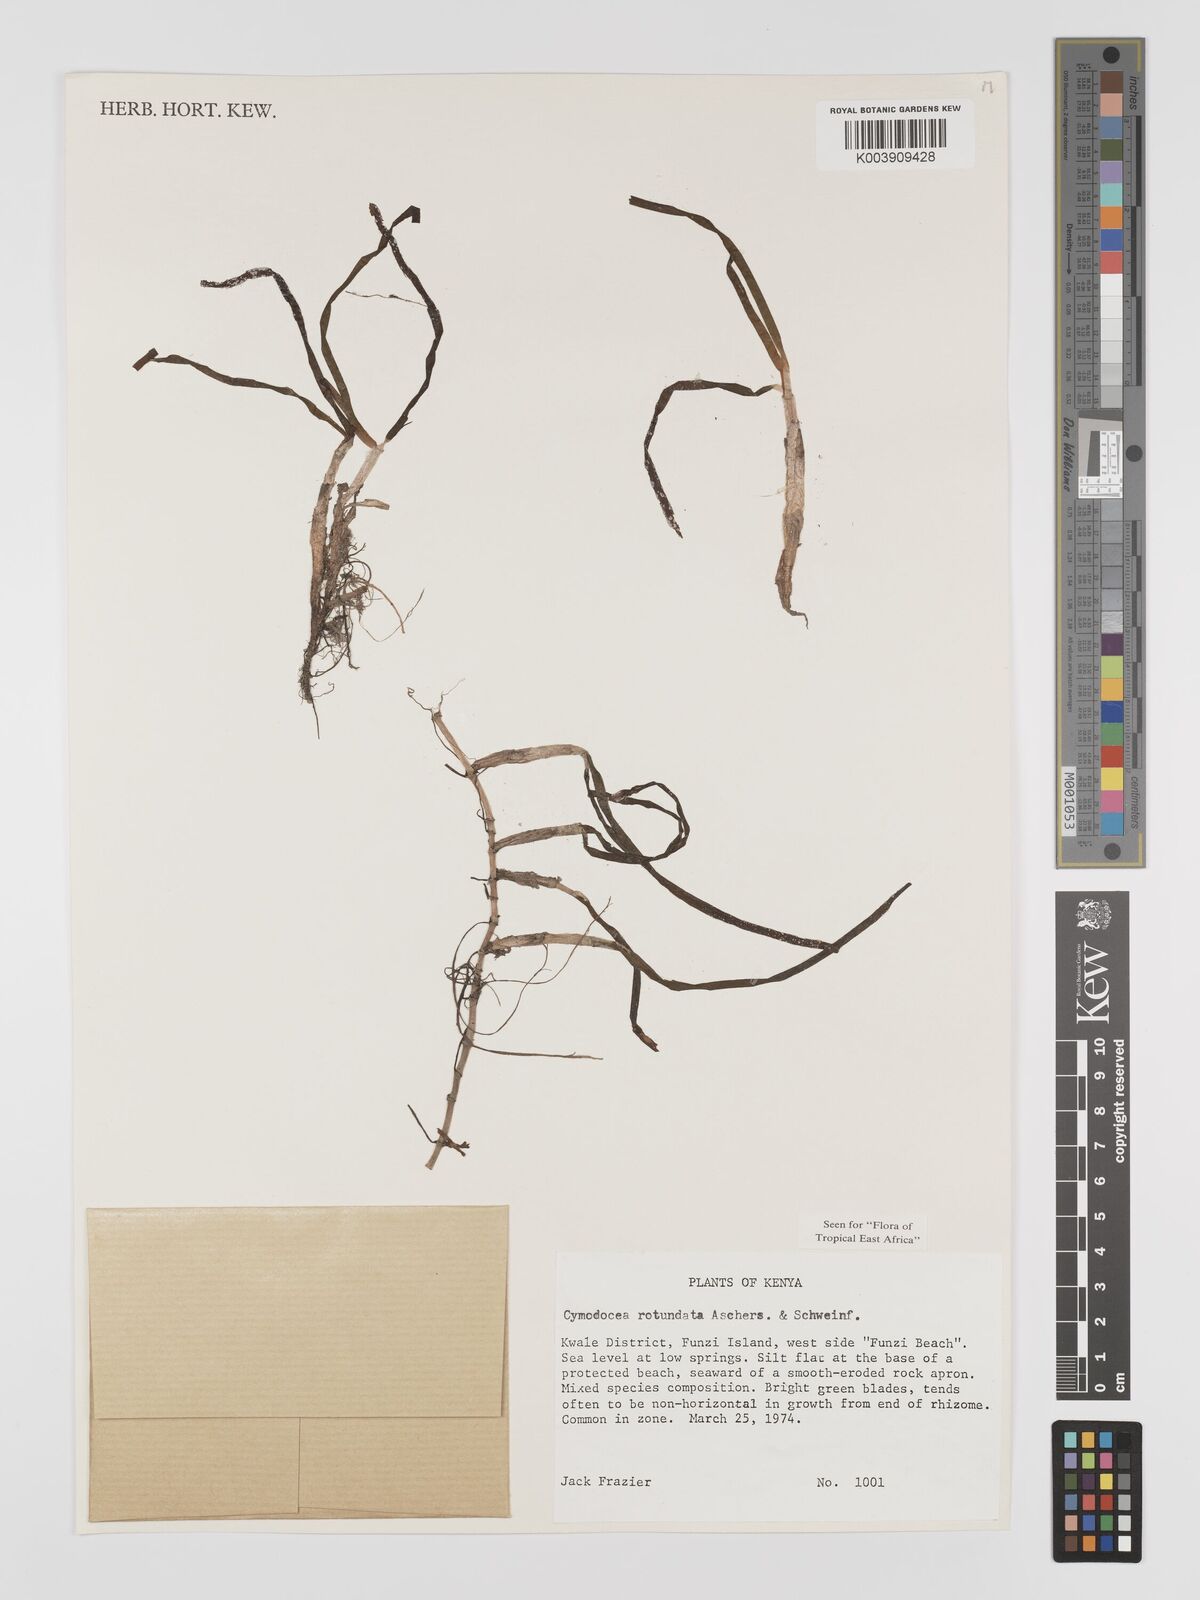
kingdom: Plantae
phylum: Tracheophyta
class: Liliopsida
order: Alismatales
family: Cymodoceaceae
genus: Cymodocea
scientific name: Cymodocea rotundata
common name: Species code: cr
